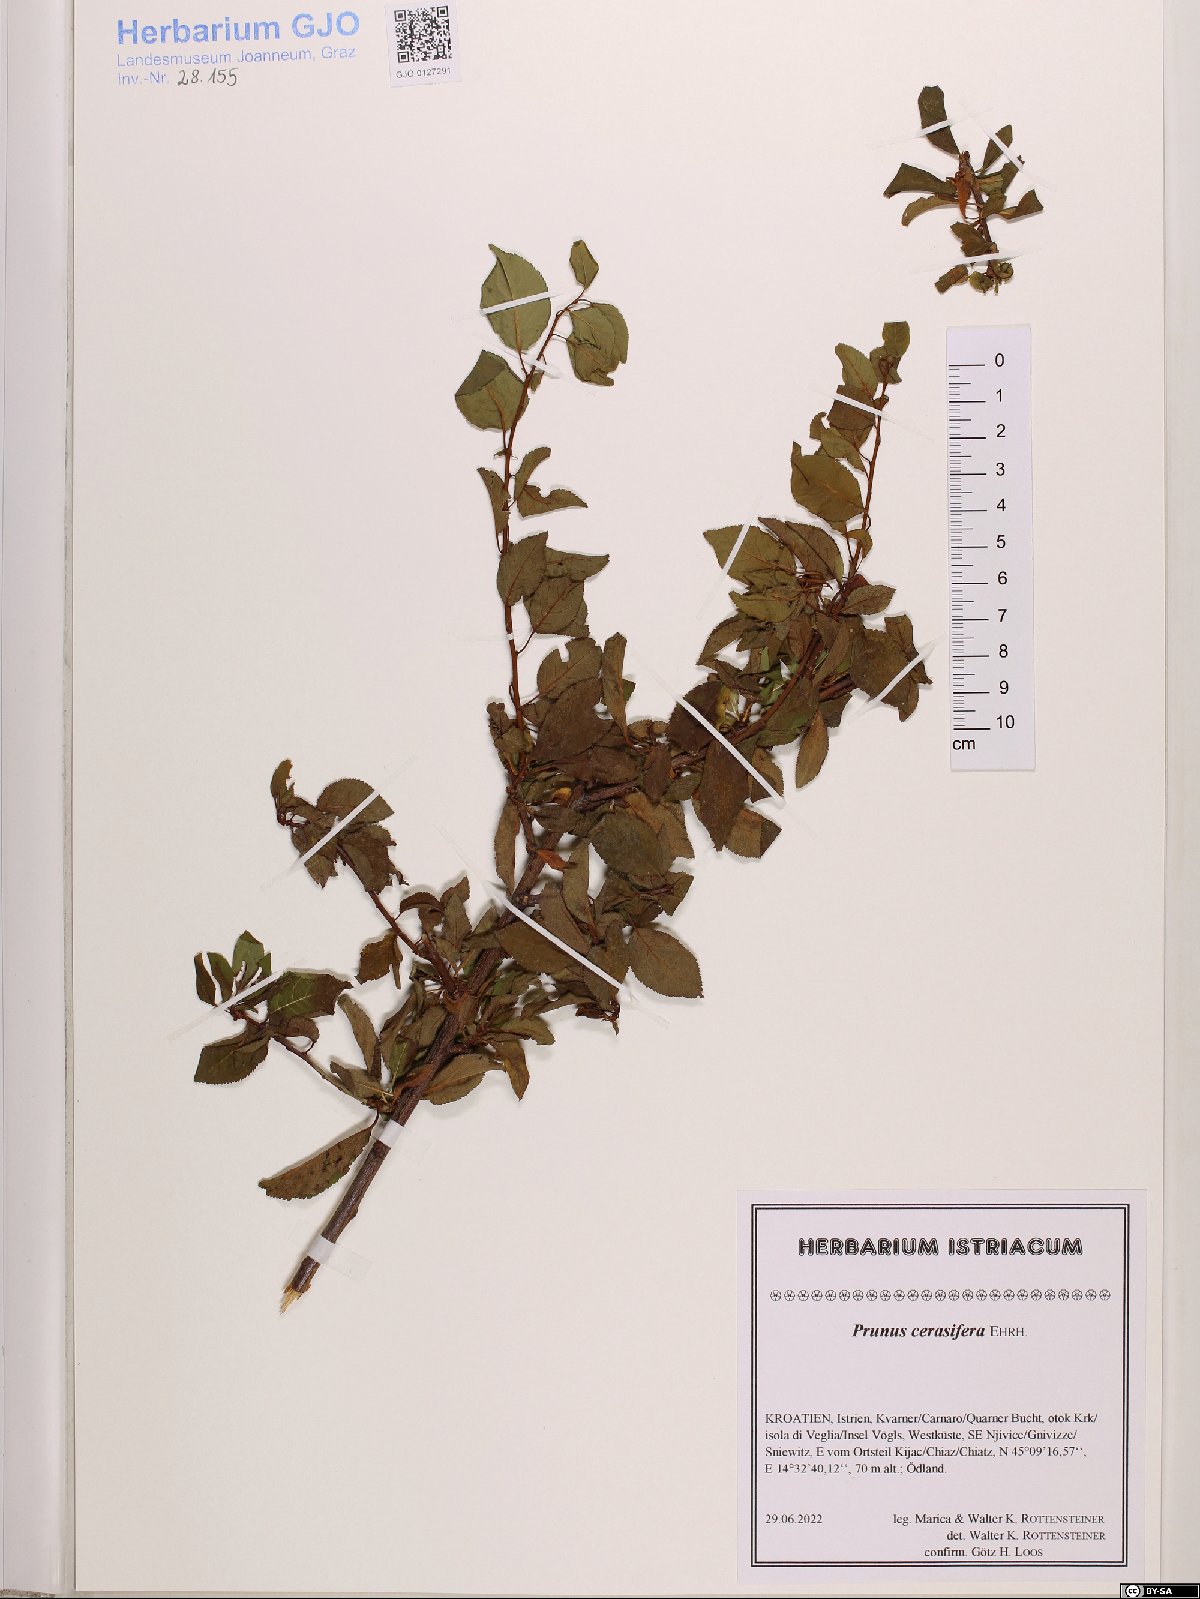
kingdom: Plantae
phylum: Tracheophyta
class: Magnoliopsida
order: Rosales
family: Rosaceae
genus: Prunus
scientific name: Prunus cerasifera
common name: Cherry plum
